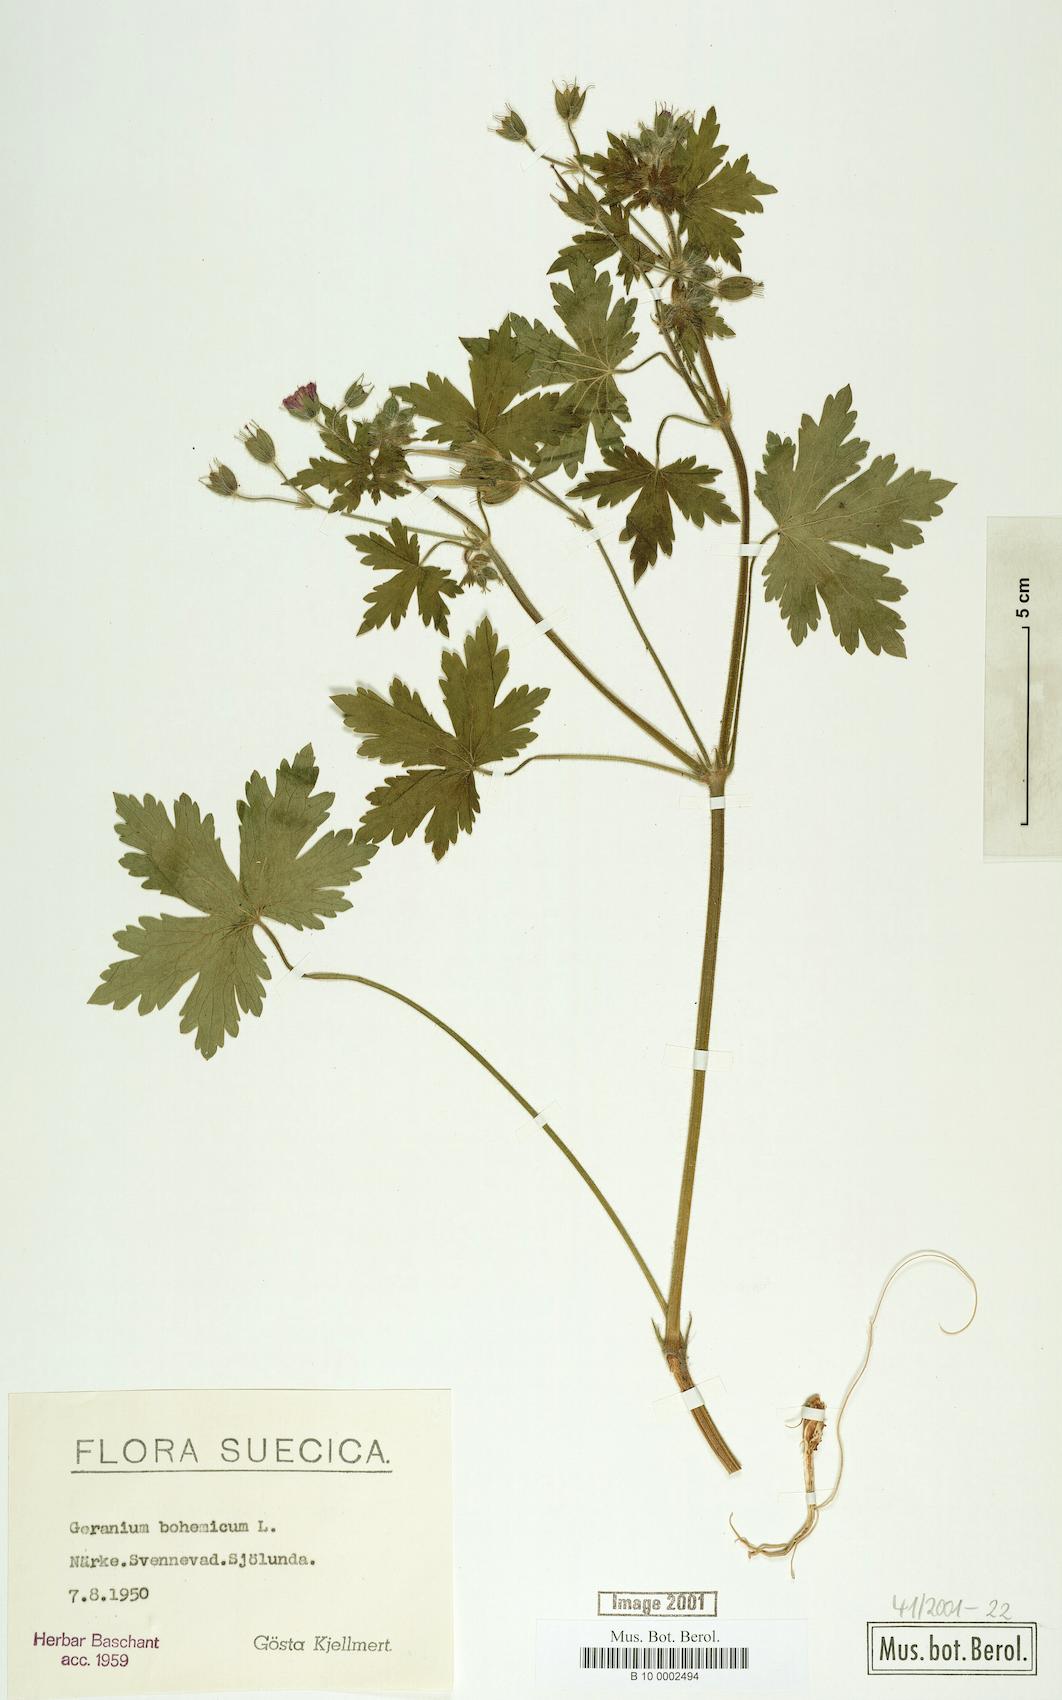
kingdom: Plantae
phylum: Tracheophyta
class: Magnoliopsida
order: Geraniales
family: Geraniaceae
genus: Geranium
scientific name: Geranium bohemicum
